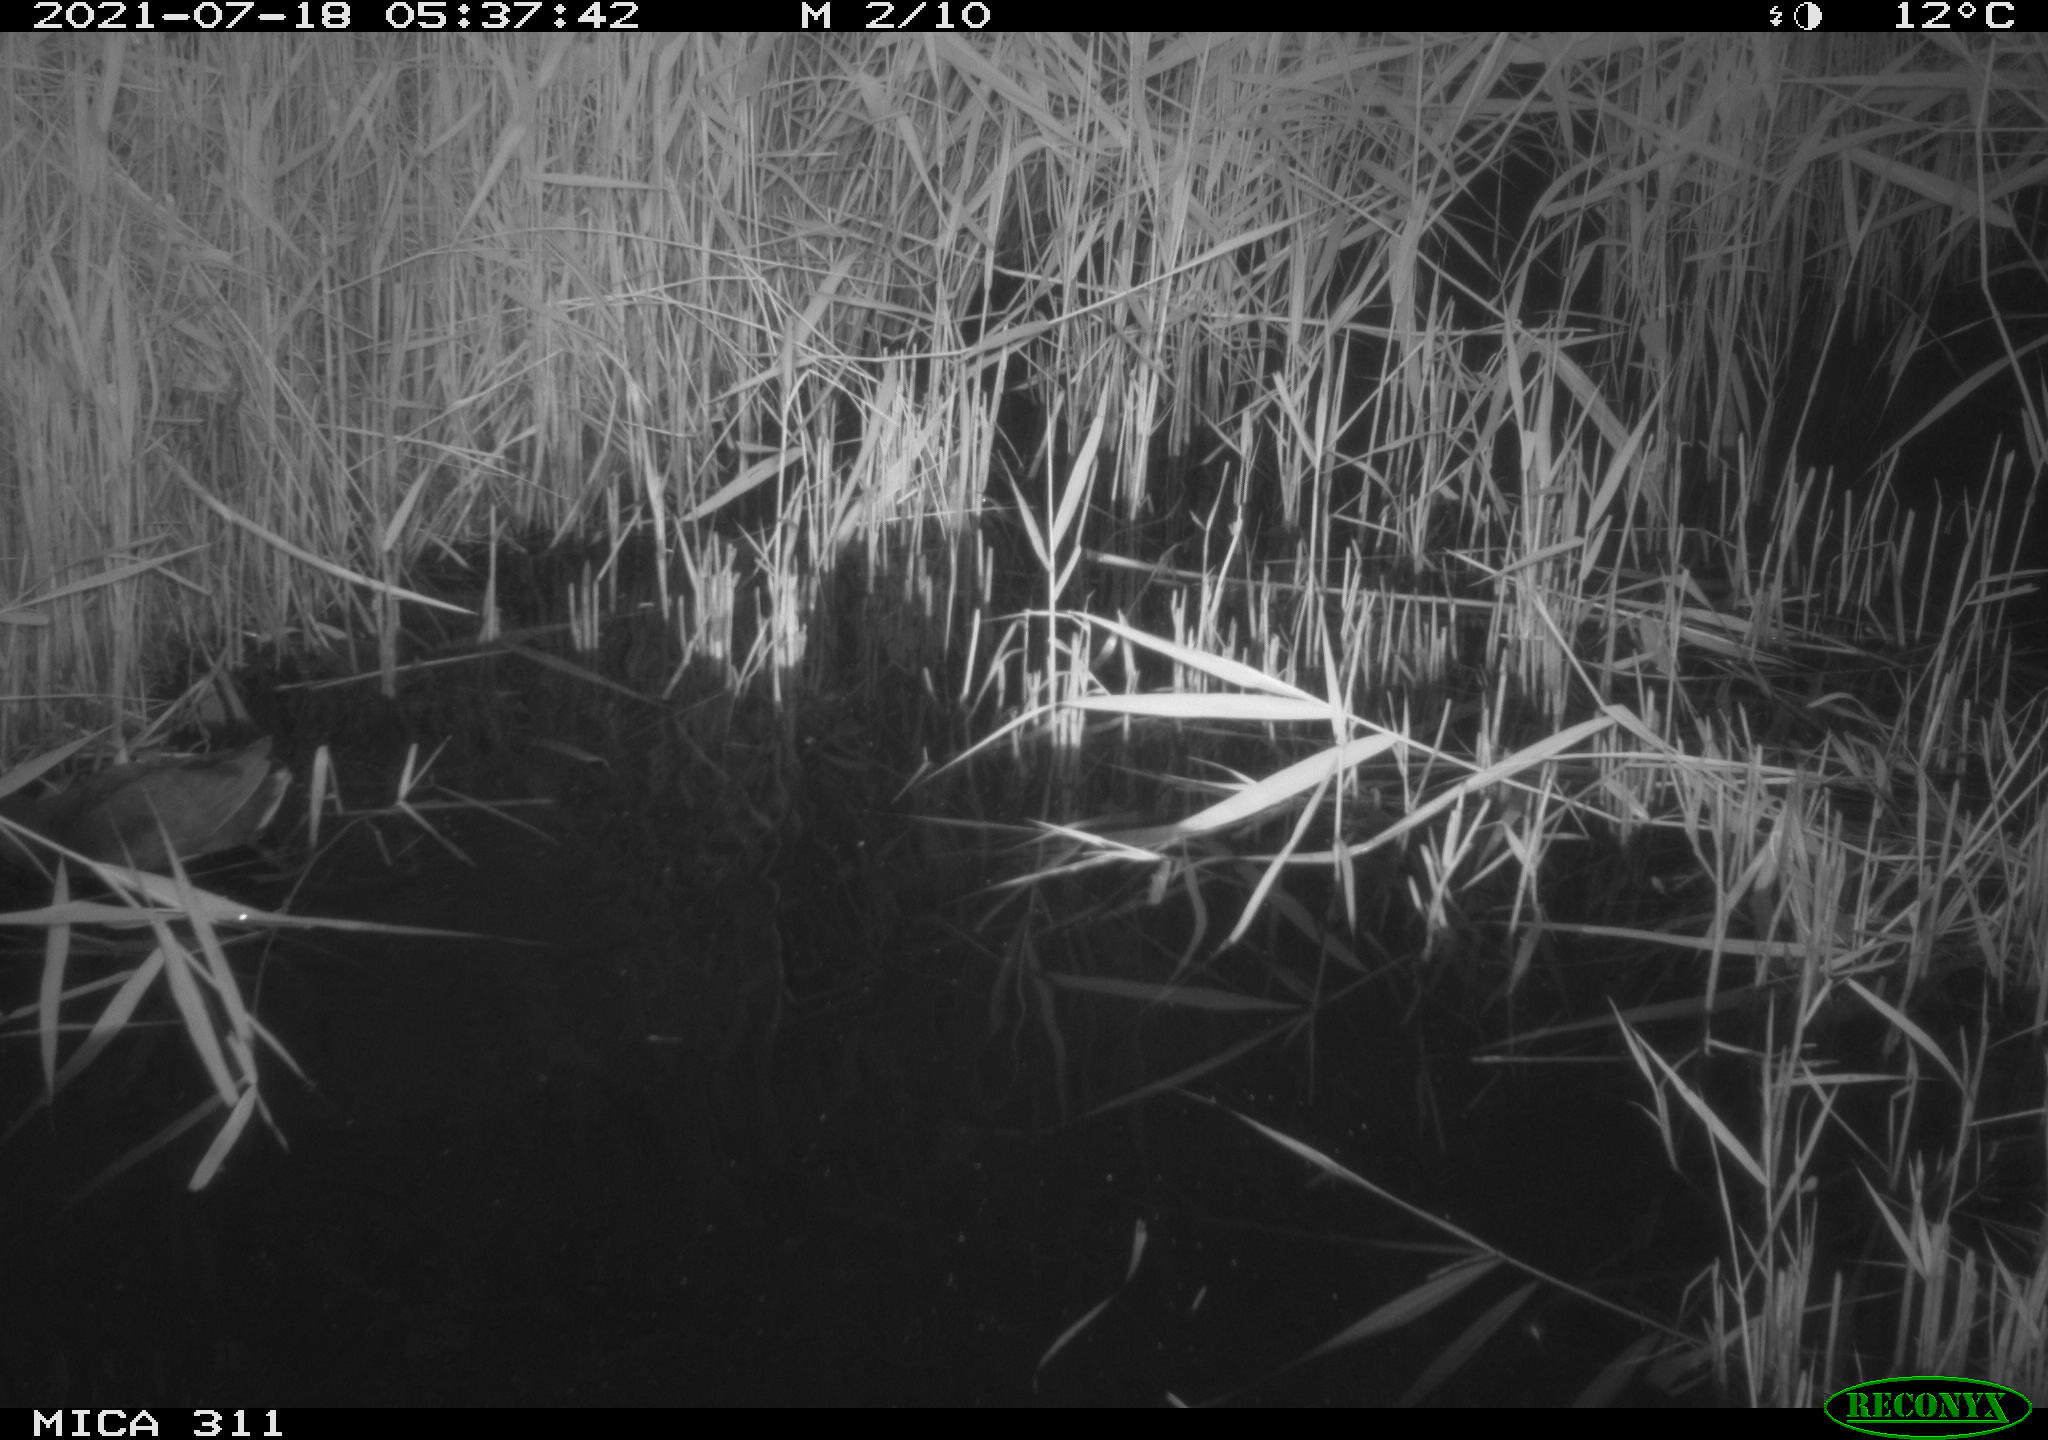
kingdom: Animalia
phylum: Chordata
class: Aves
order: Gruiformes
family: Rallidae
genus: Gallinula
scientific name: Gallinula chloropus
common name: Common moorhen
